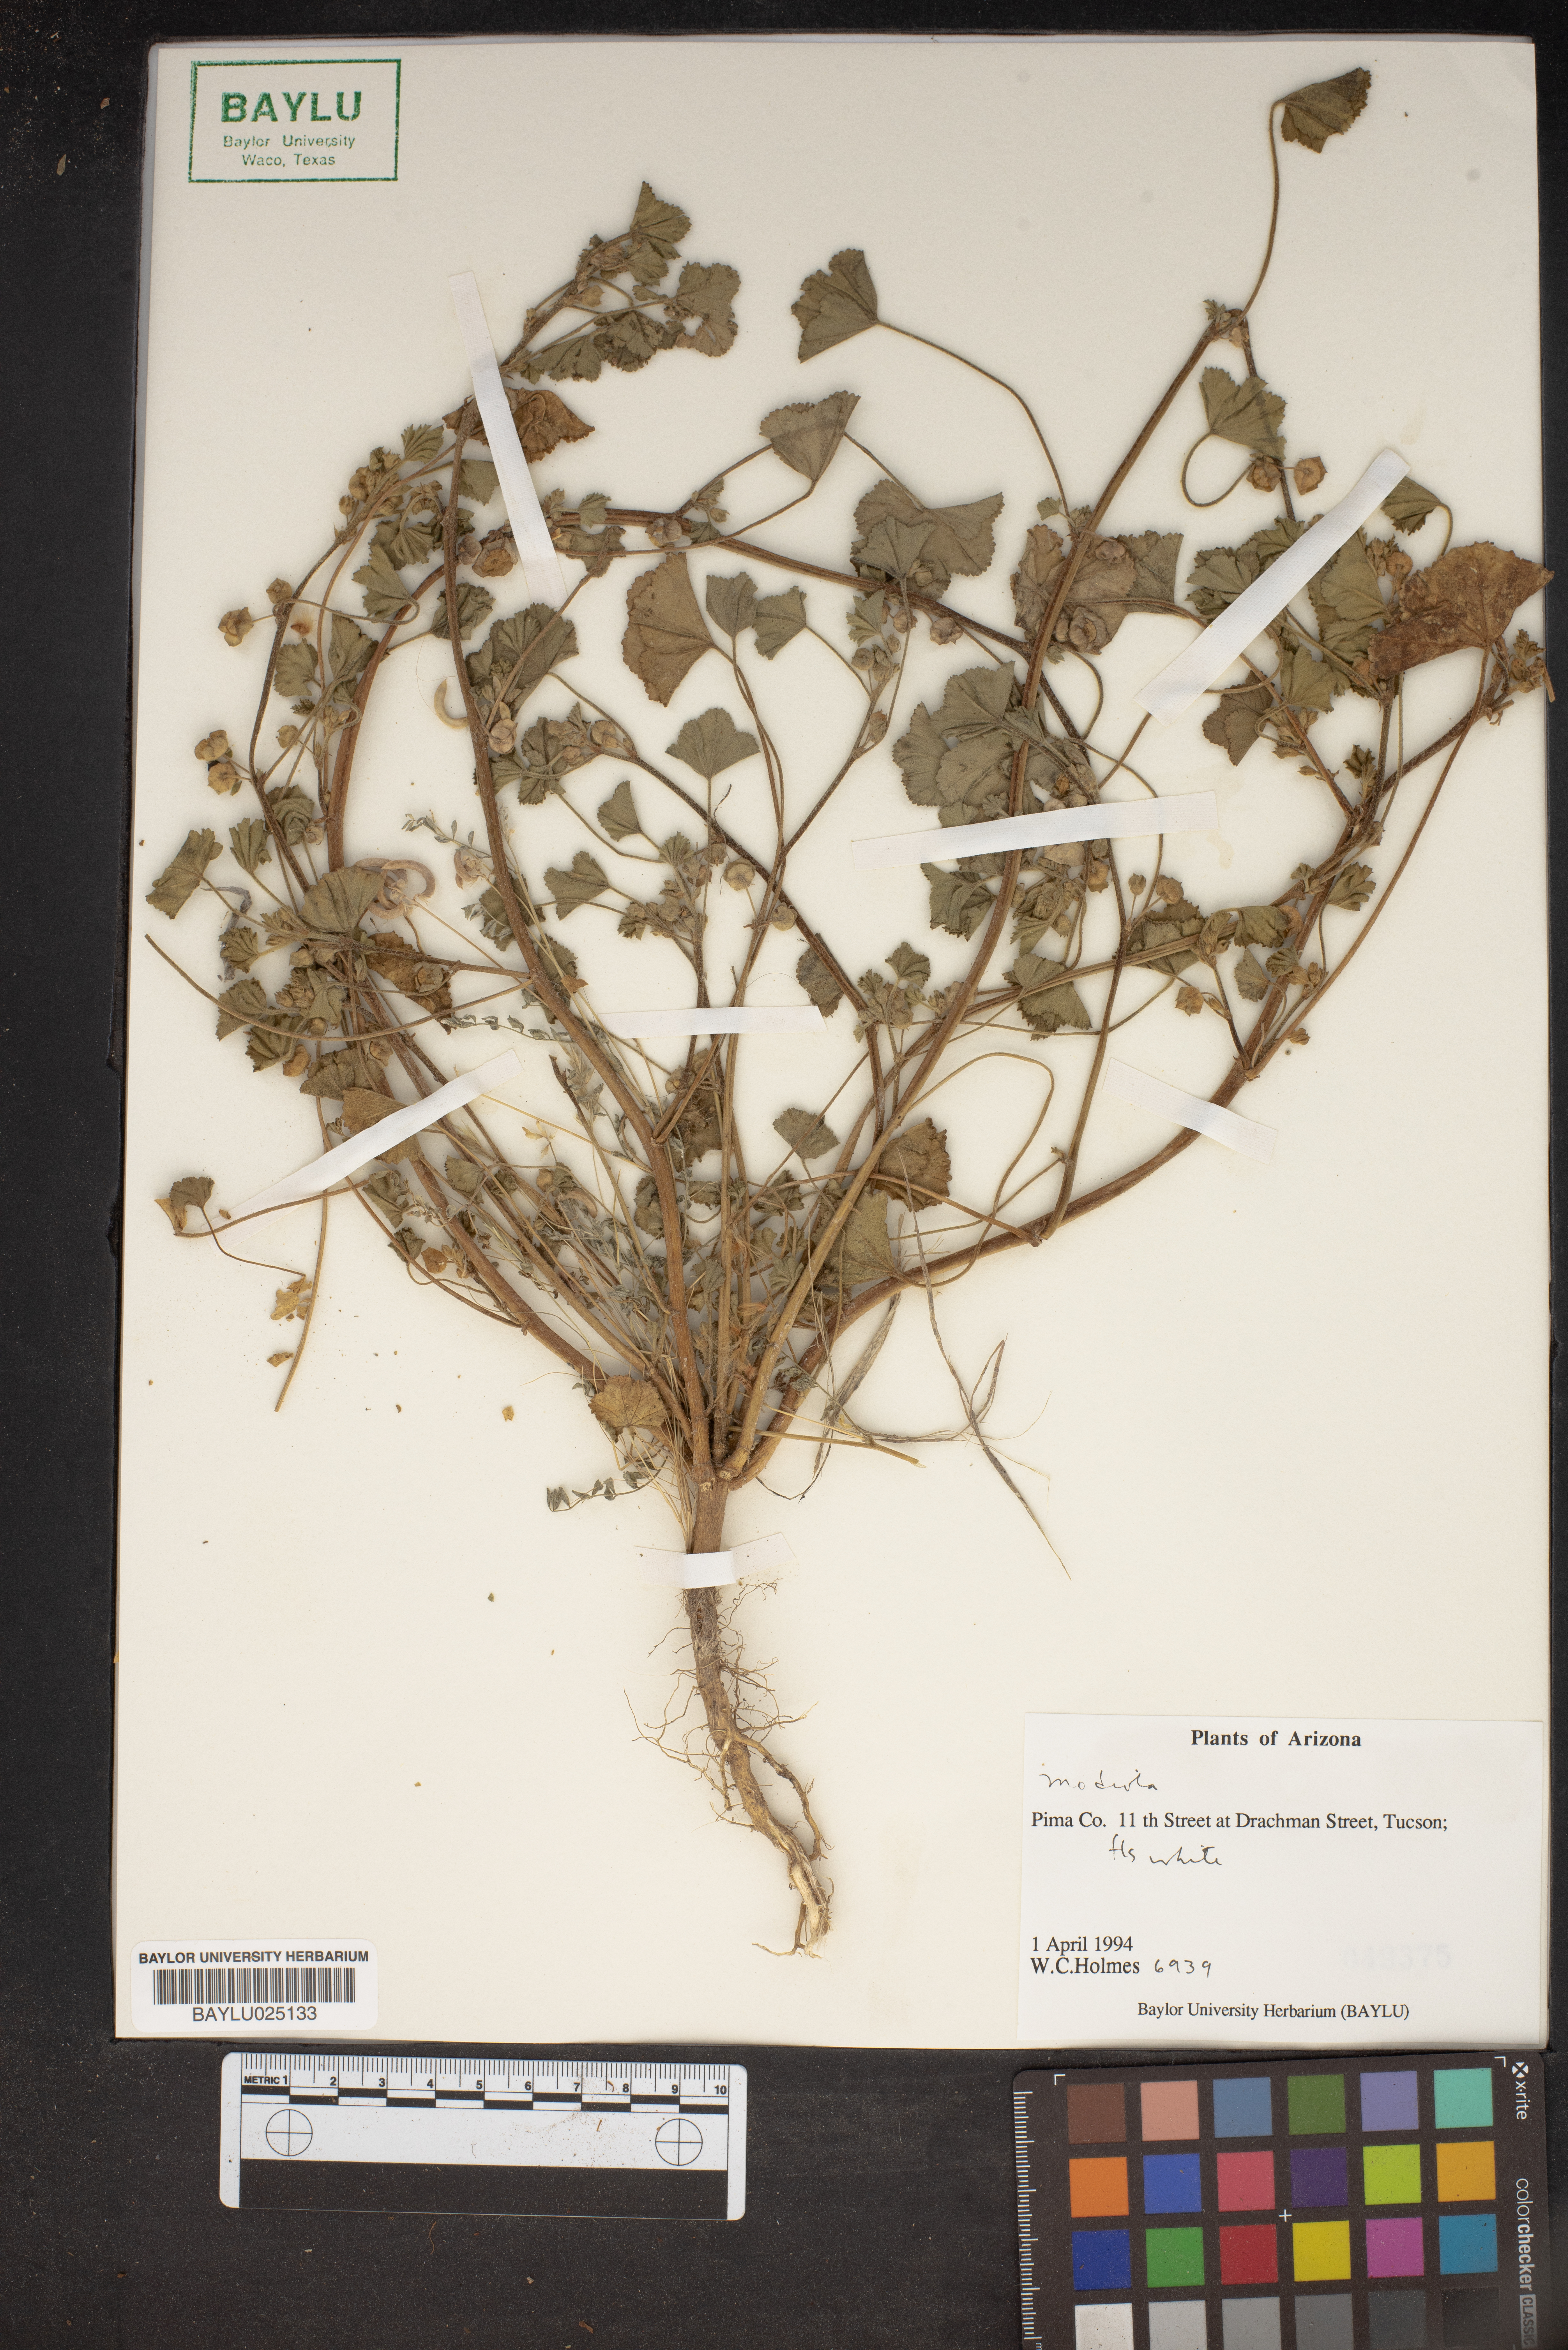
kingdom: Plantae
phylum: Tracheophyta
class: Magnoliopsida
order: Malvales
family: Malvaceae
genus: Modiola
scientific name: Modiola
